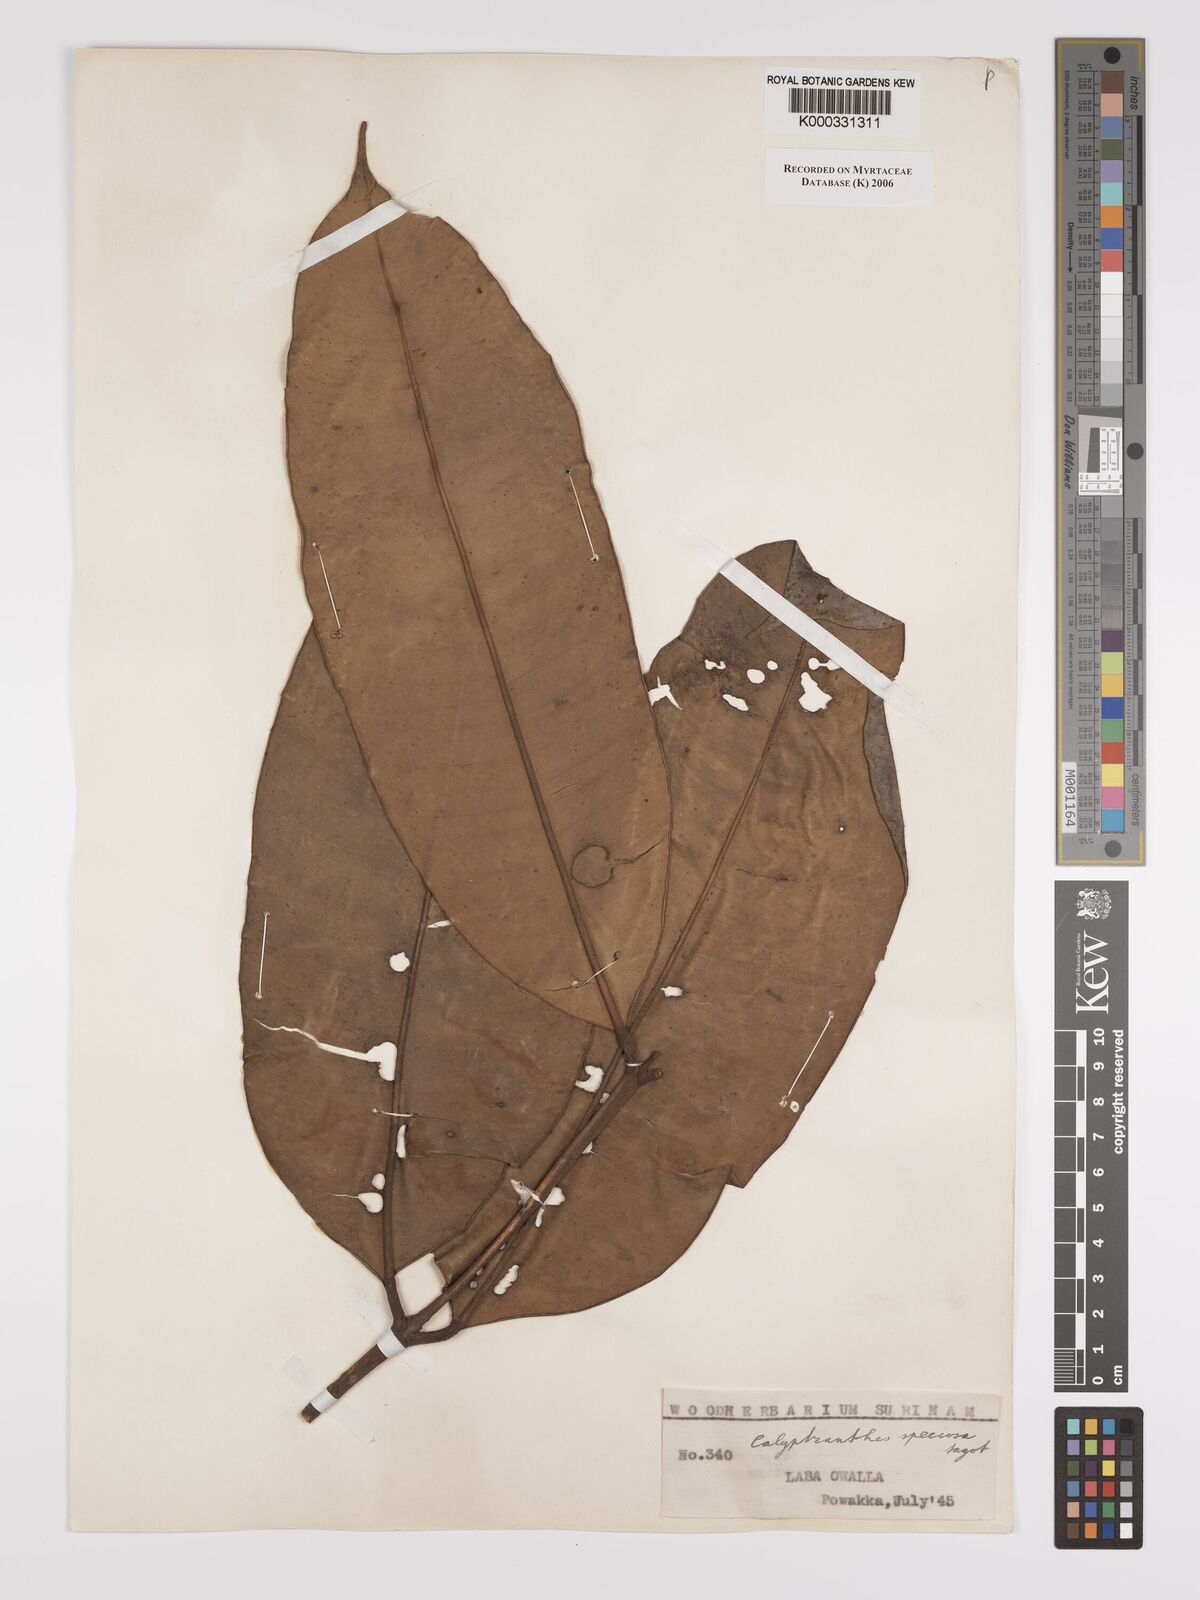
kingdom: Plantae
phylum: Tracheophyta
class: Magnoliopsida
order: Myrtales
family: Myrtaceae
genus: Myrcia
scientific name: Myrcia neospeciosa
